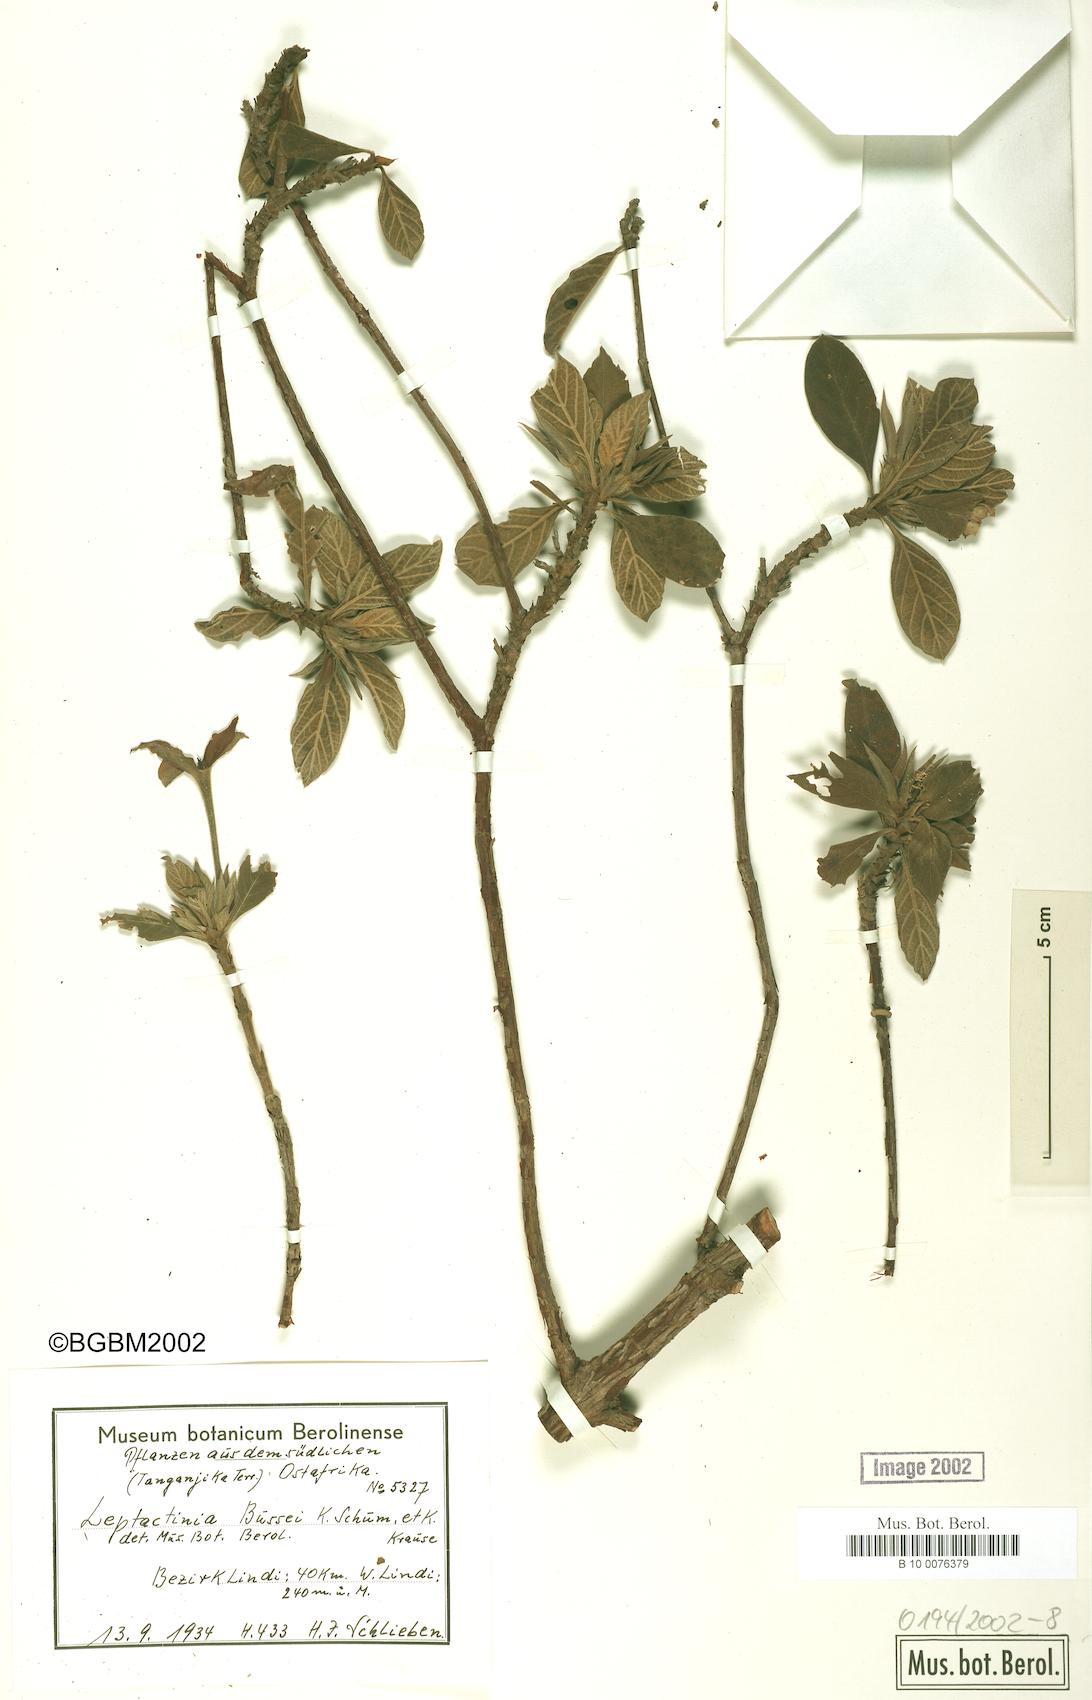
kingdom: Plantae
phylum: Tracheophyta
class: Magnoliopsida
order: Gentianales
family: Rubiaceae
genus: Leptactina
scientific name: Leptactina delagoensis
